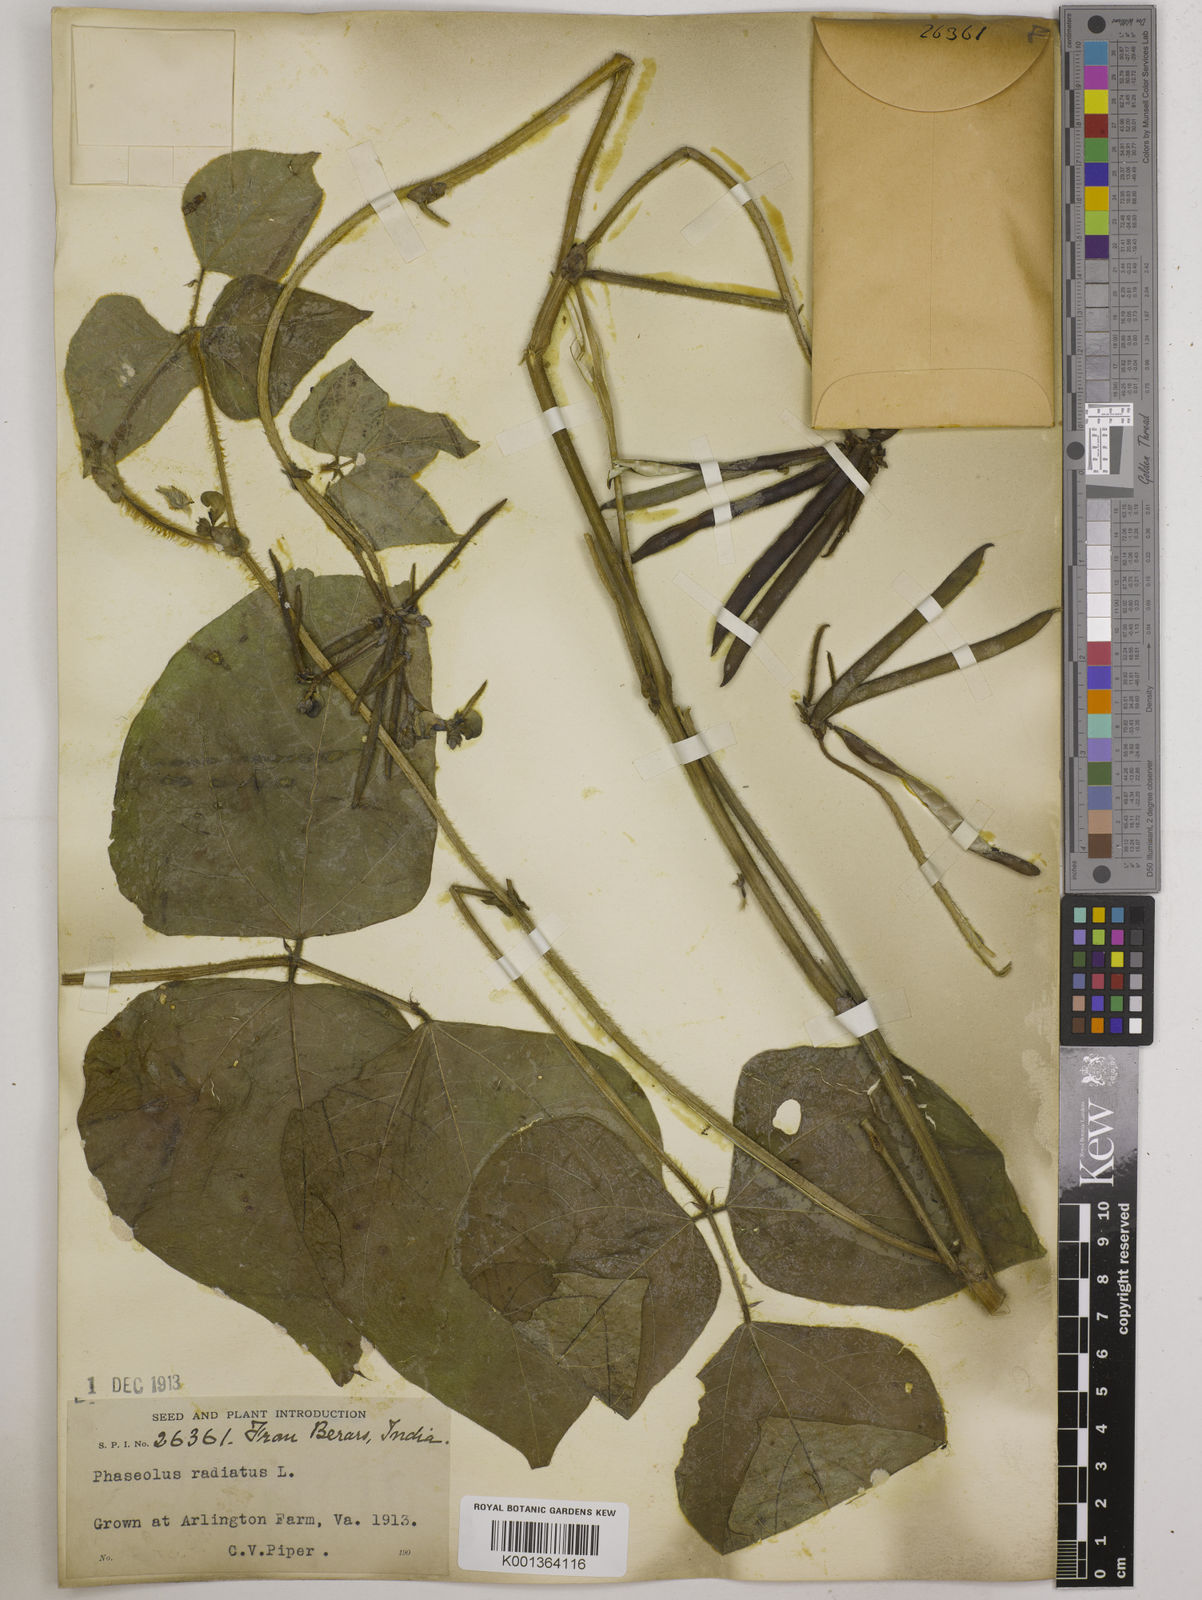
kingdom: Plantae
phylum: Tracheophyta
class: Magnoliopsida
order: Fabales
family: Fabaceae
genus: Vigna
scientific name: Vigna radiata
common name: Mung-bean
